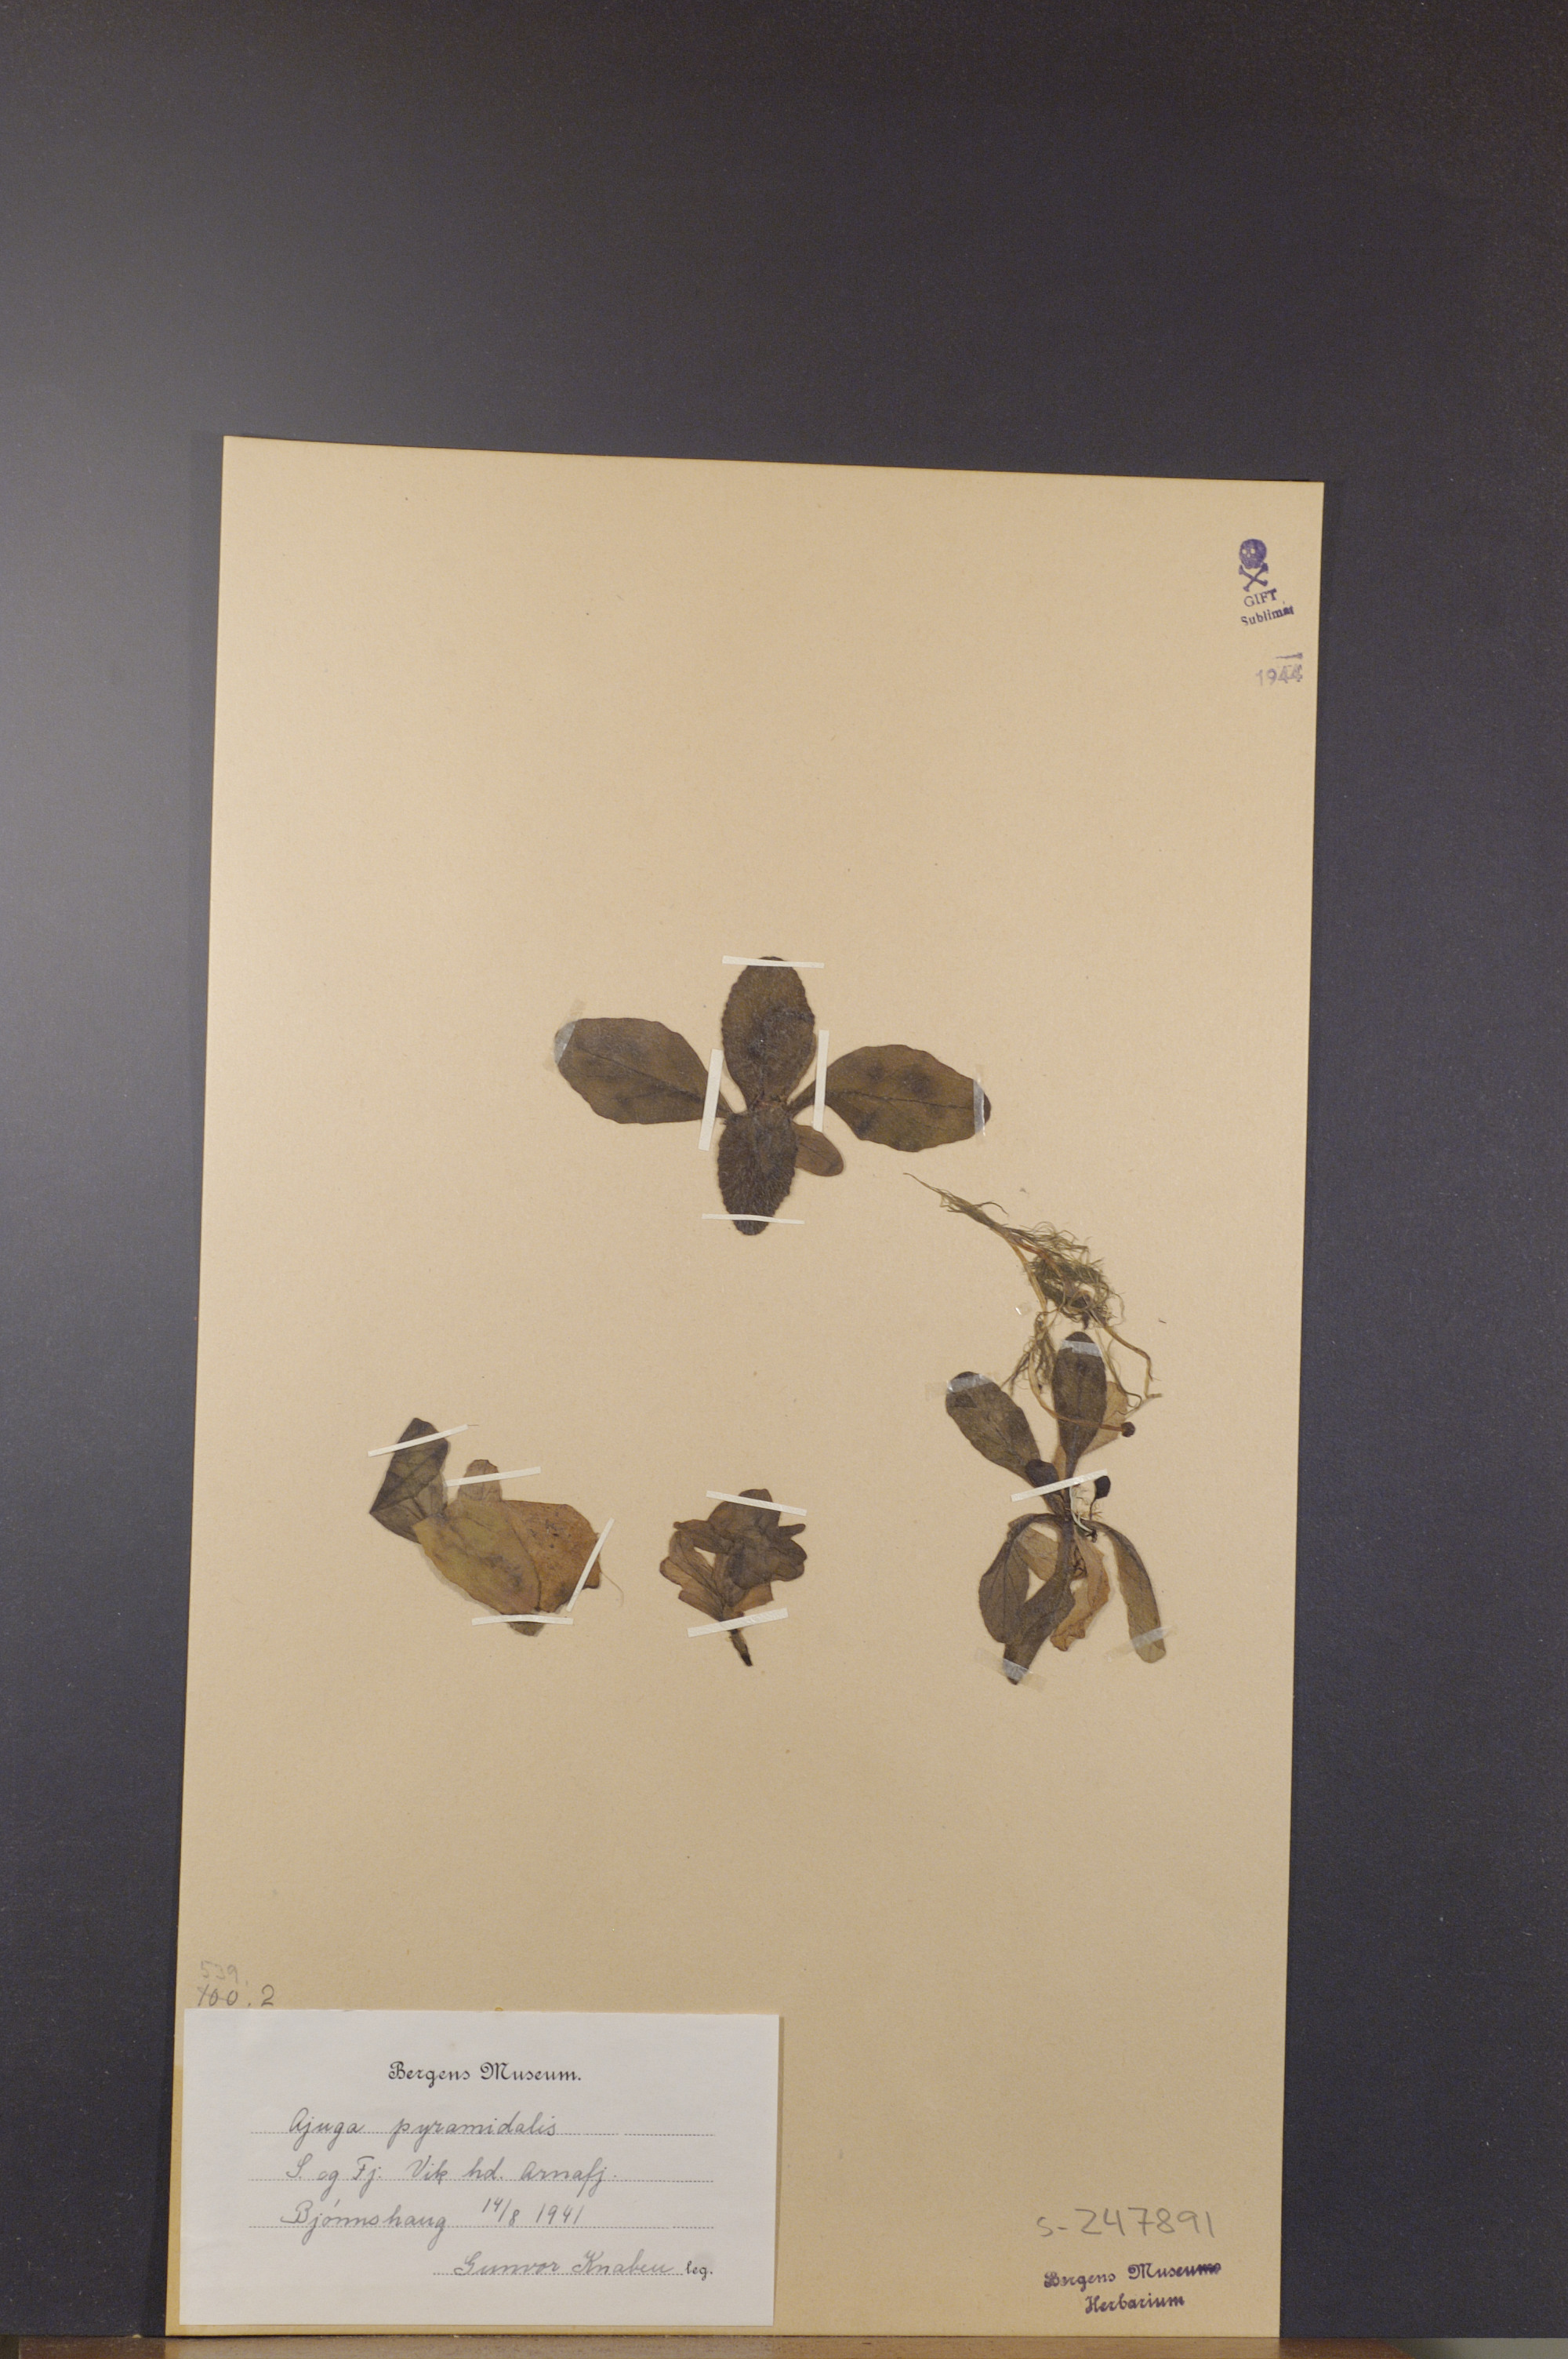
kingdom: Plantae
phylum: Tracheophyta
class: Magnoliopsida
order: Lamiales
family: Lamiaceae
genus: Ajuga
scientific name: Ajuga pyramidalis
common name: Pyramid bugle
